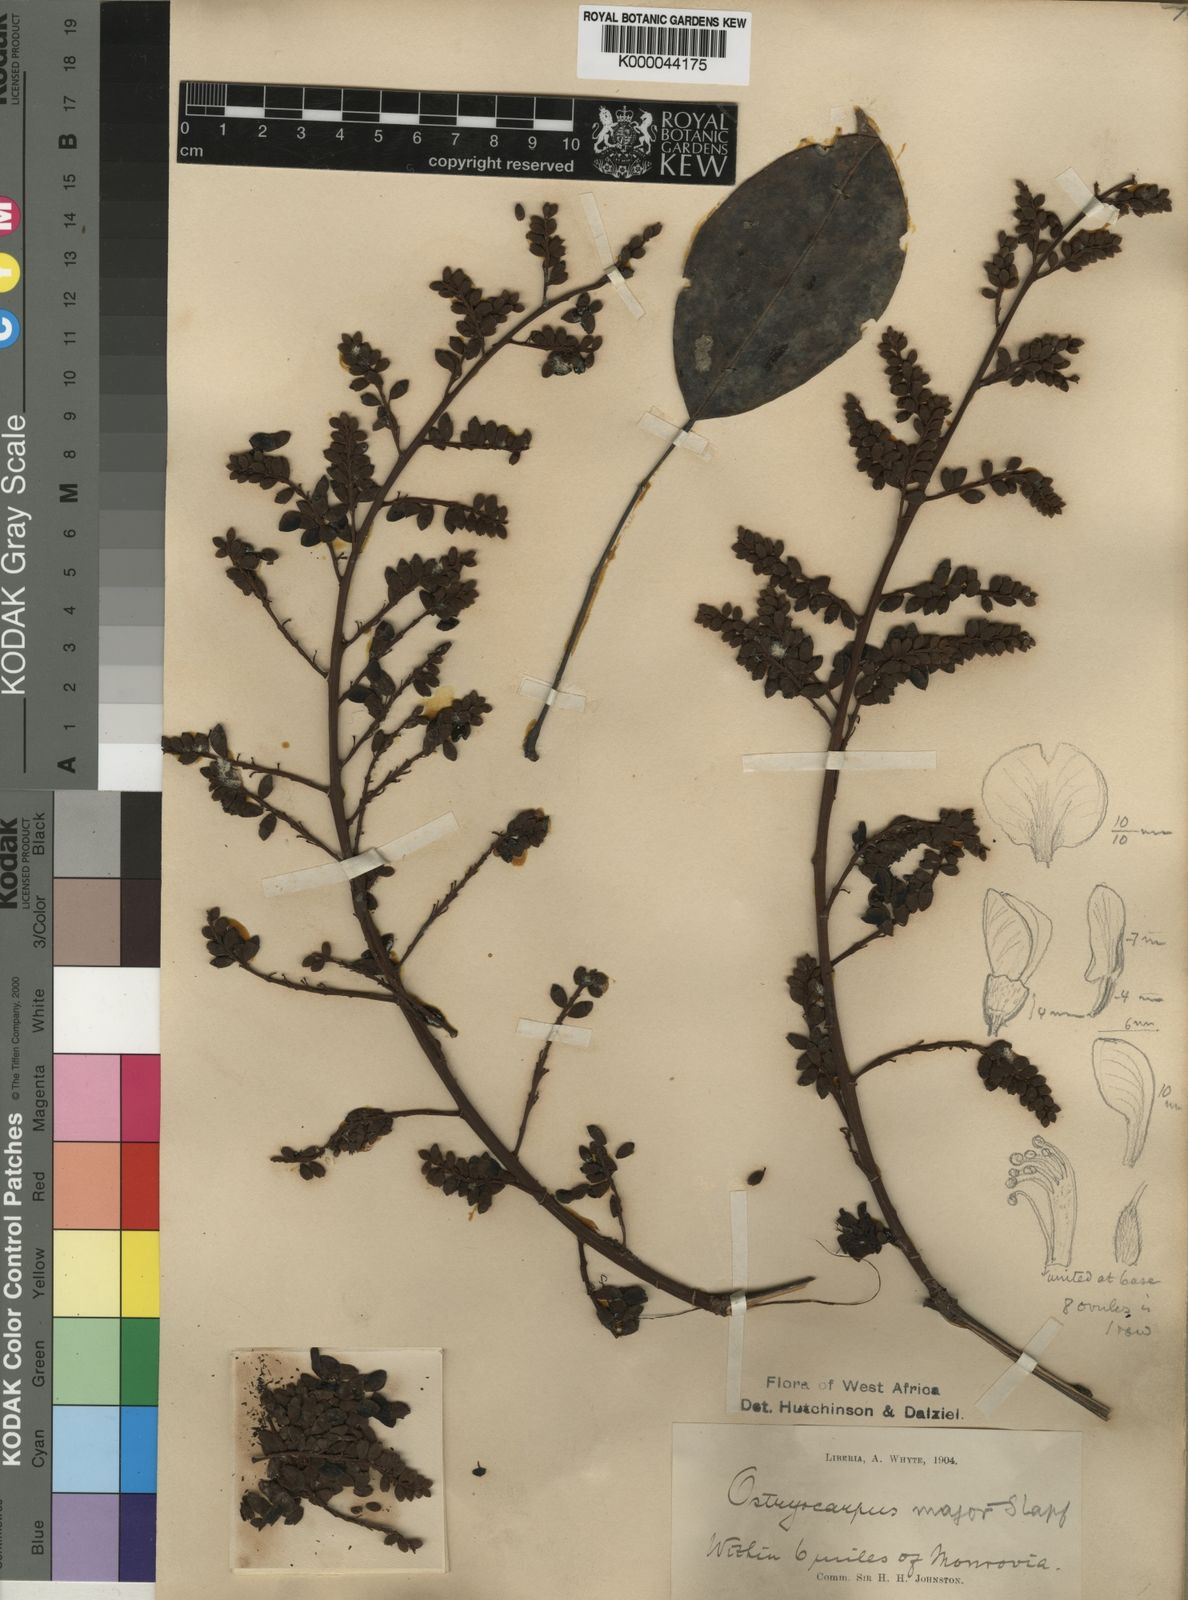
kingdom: Plantae
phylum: Tracheophyta
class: Magnoliopsida
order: Fabales
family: Fabaceae
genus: Aganope
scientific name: Aganope gabonica
